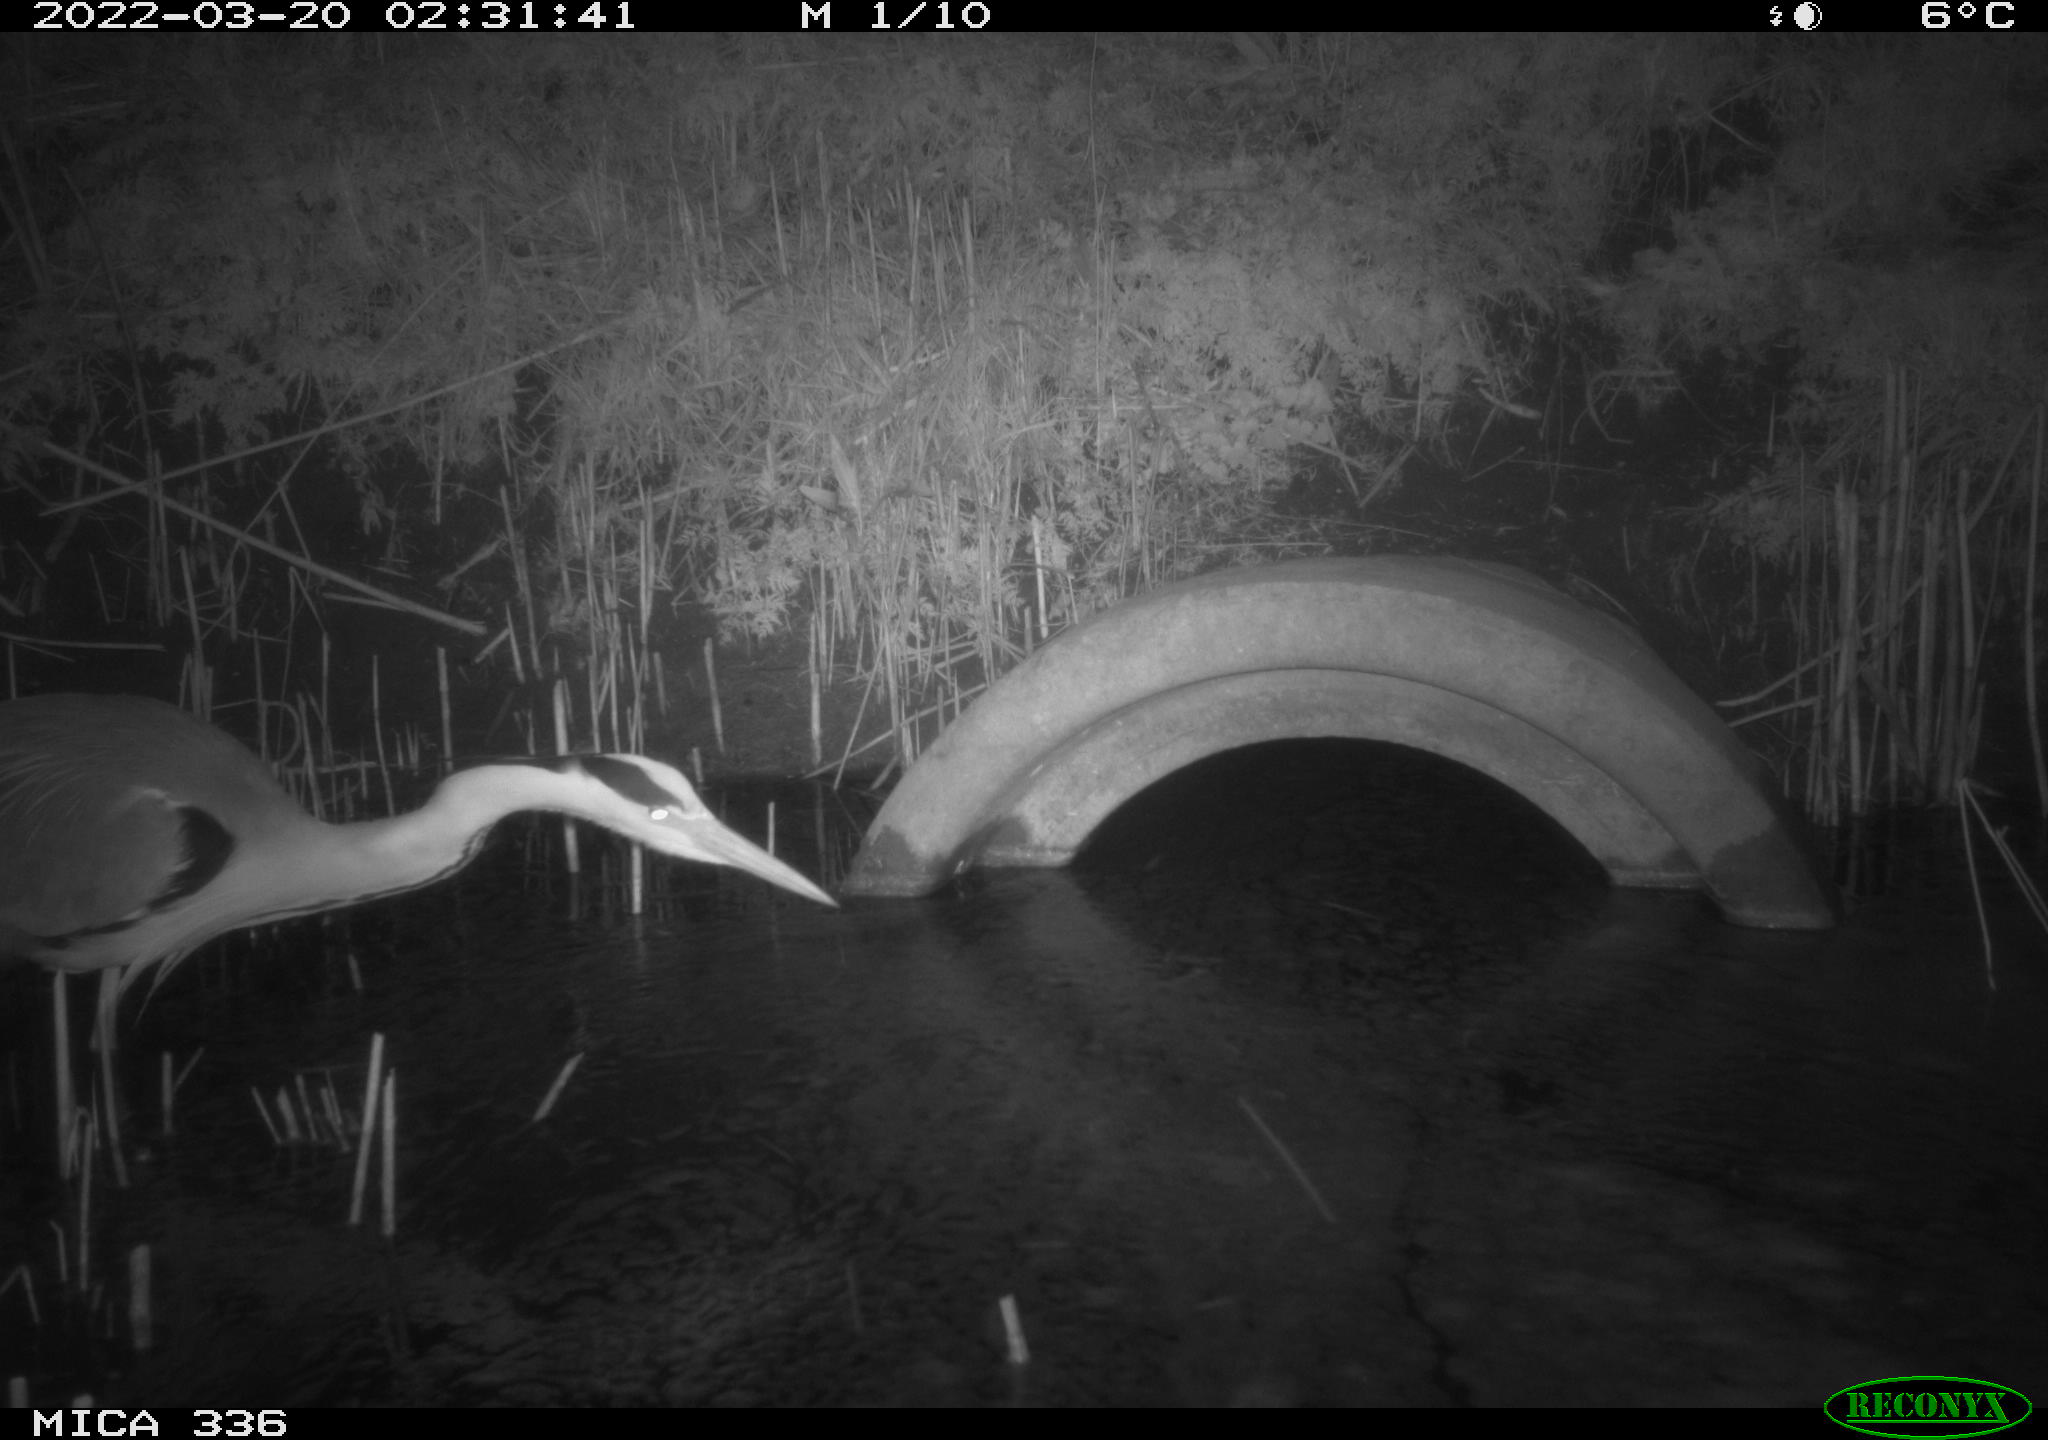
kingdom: Animalia
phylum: Chordata
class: Aves
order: Pelecaniformes
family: Ardeidae
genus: Ardea
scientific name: Ardea cinerea
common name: Grey heron
